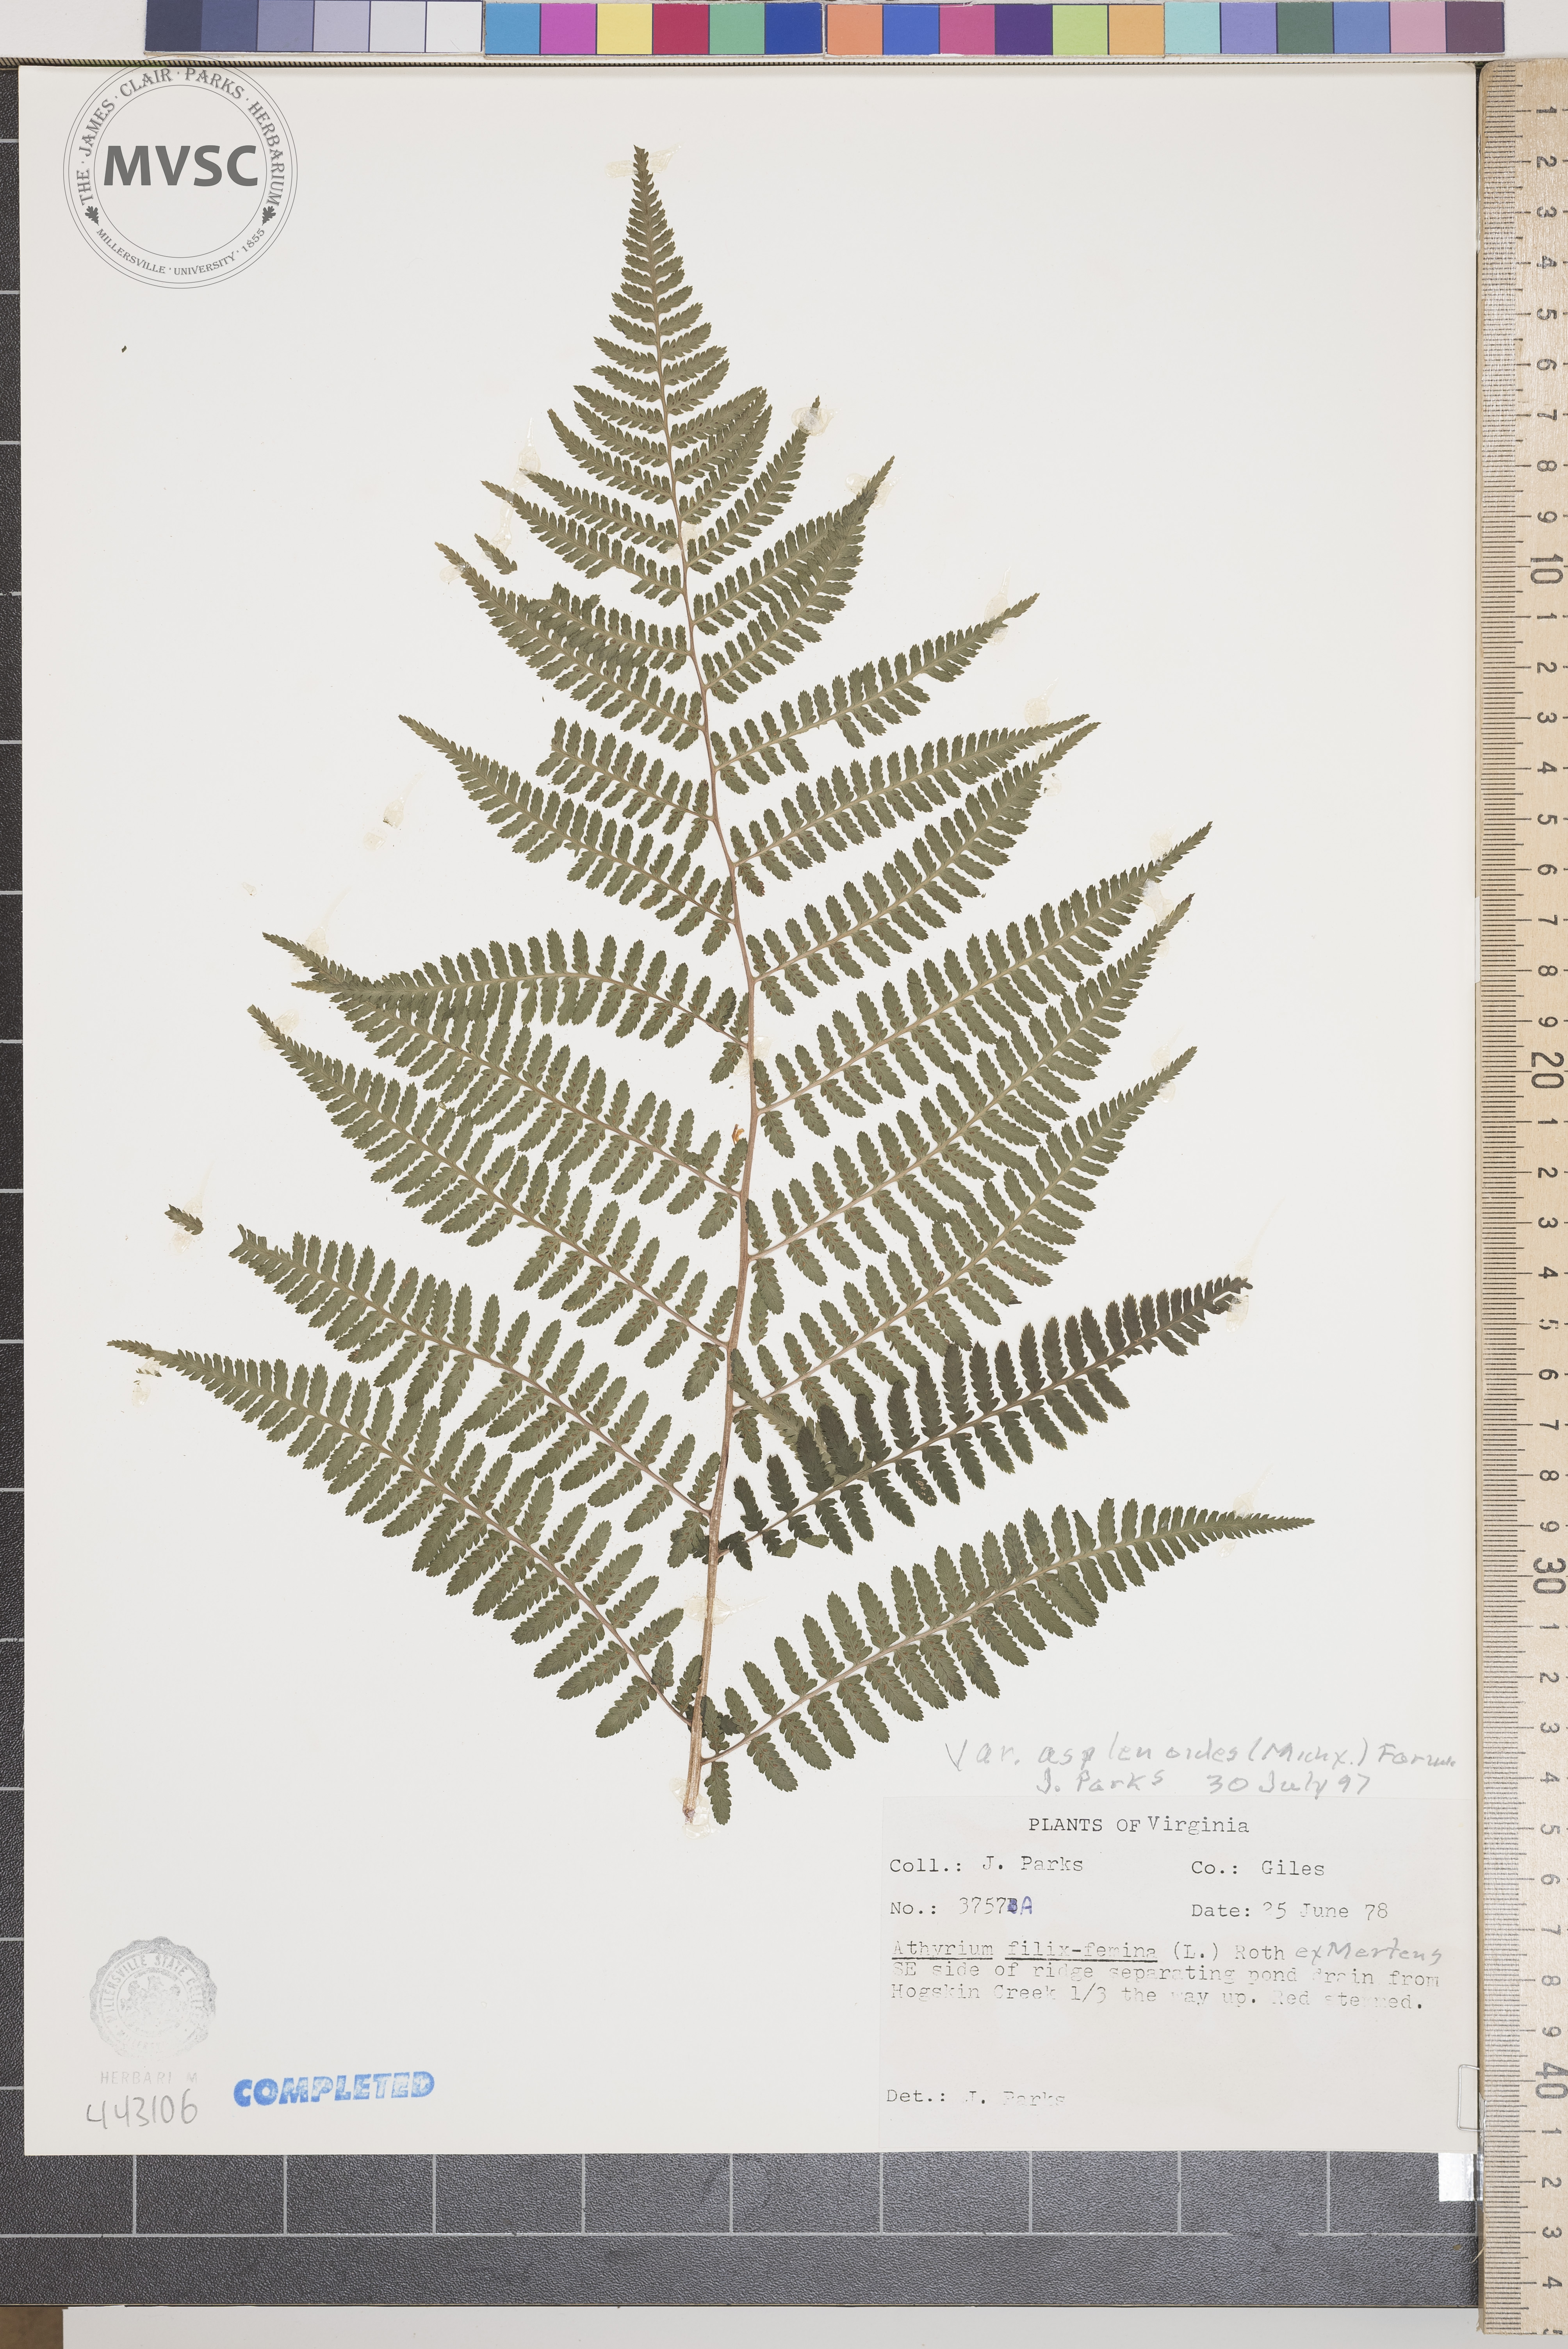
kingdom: Plantae
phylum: Tracheophyta
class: Polypodiopsida
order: Polypodiales
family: Athyriaceae
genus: Athyrium
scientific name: Athyrium filix-femina
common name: Lady fern
